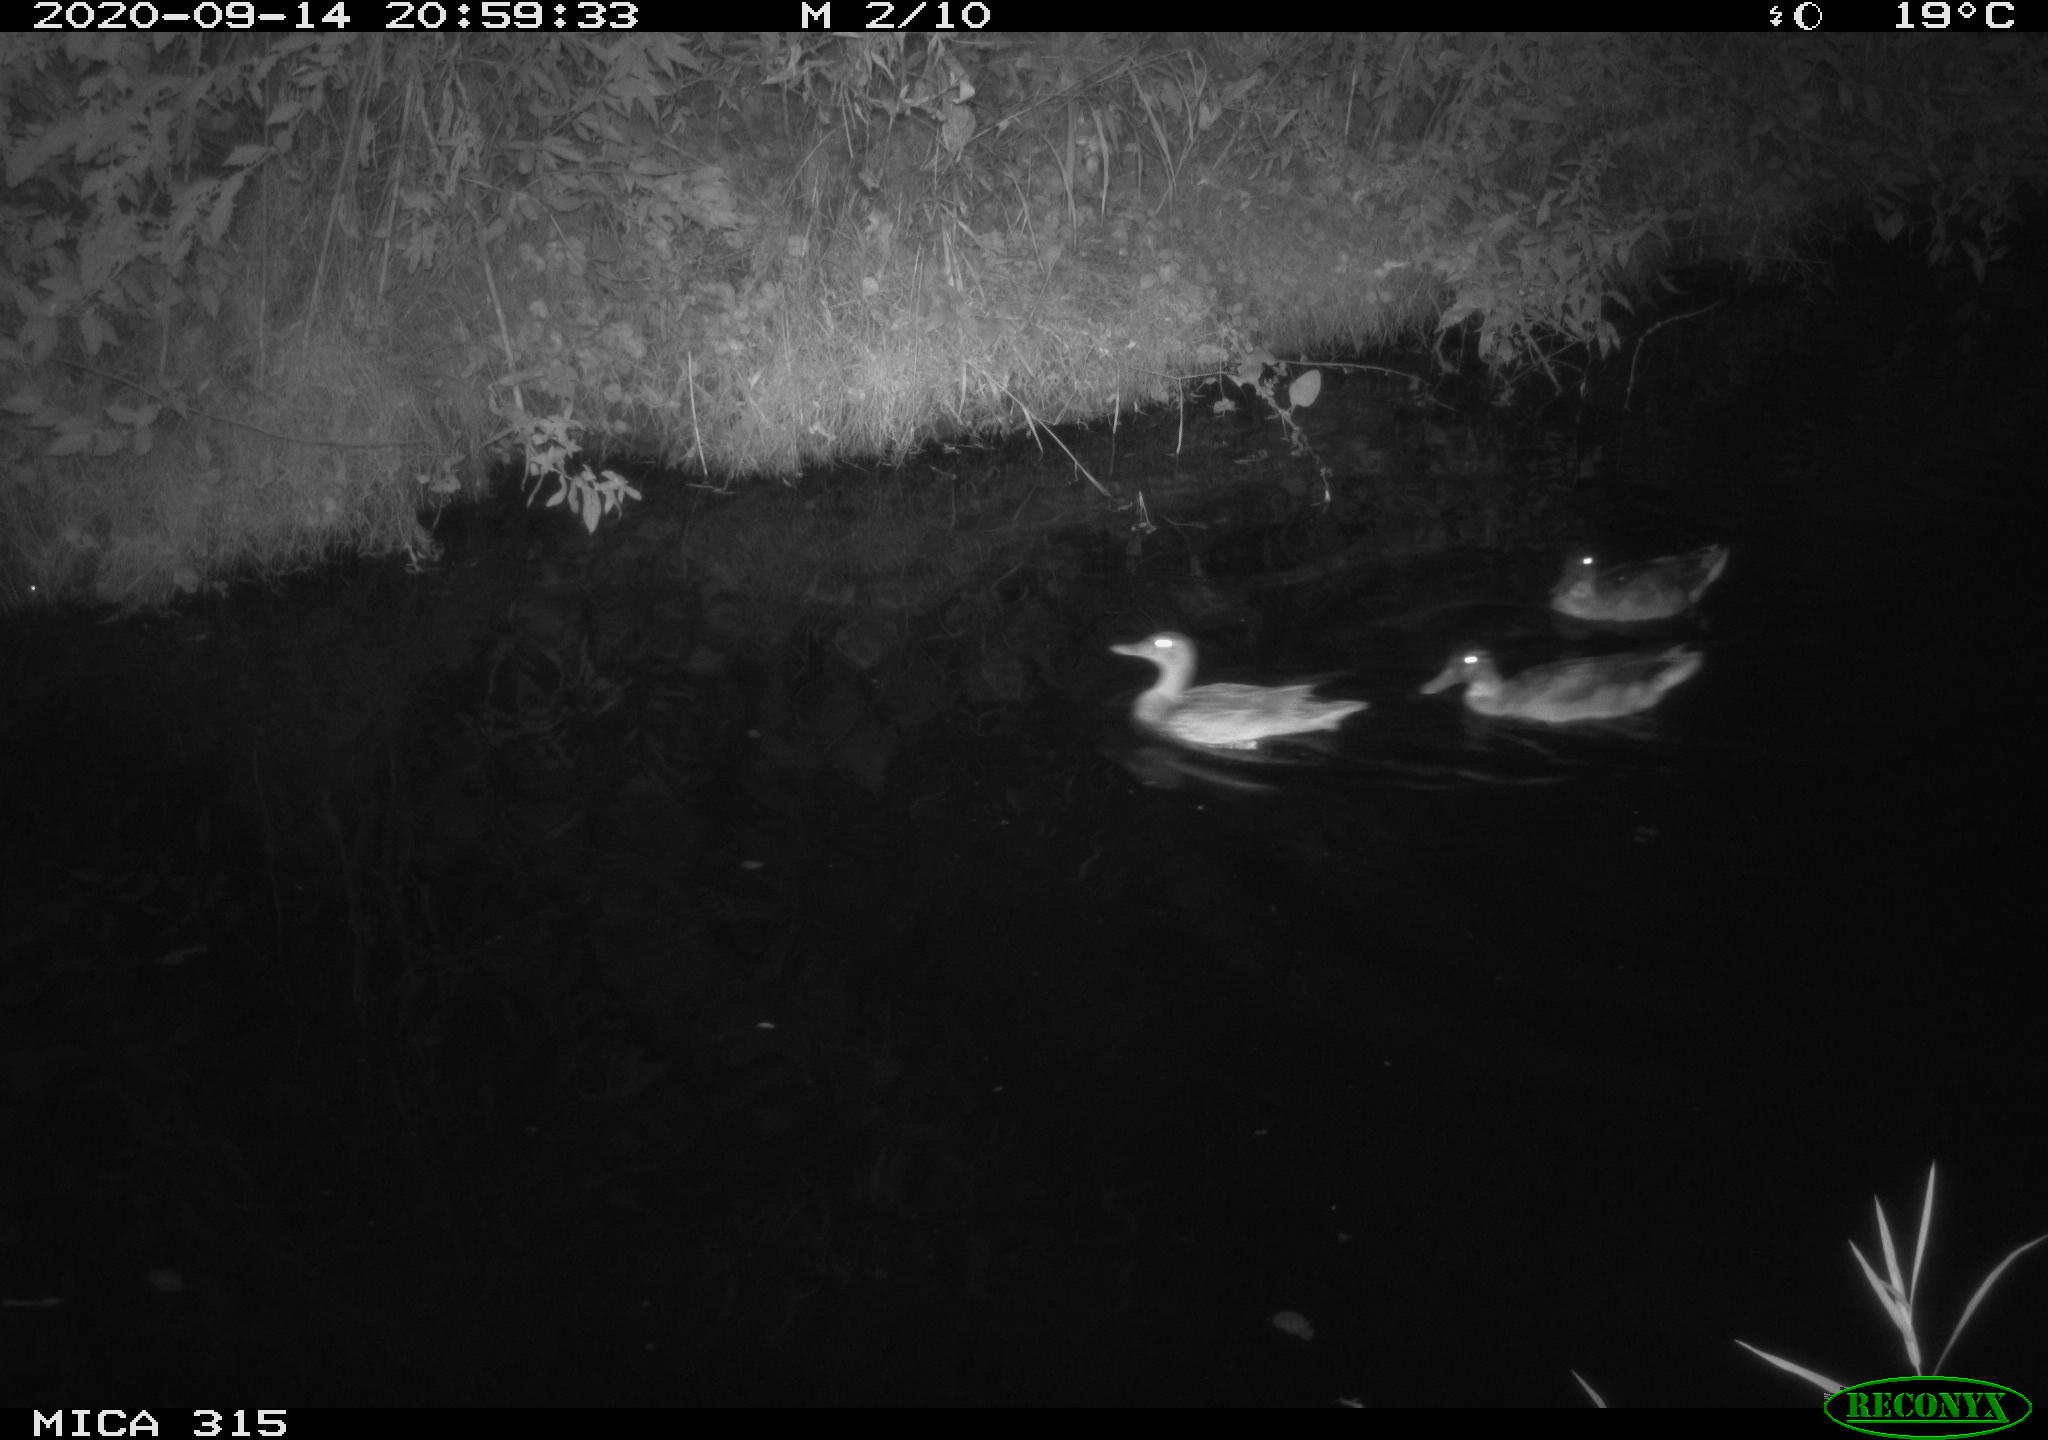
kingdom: Animalia
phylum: Chordata
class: Aves
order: Anseriformes
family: Anatidae
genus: Anas
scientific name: Anas platyrhynchos
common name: Mallard
